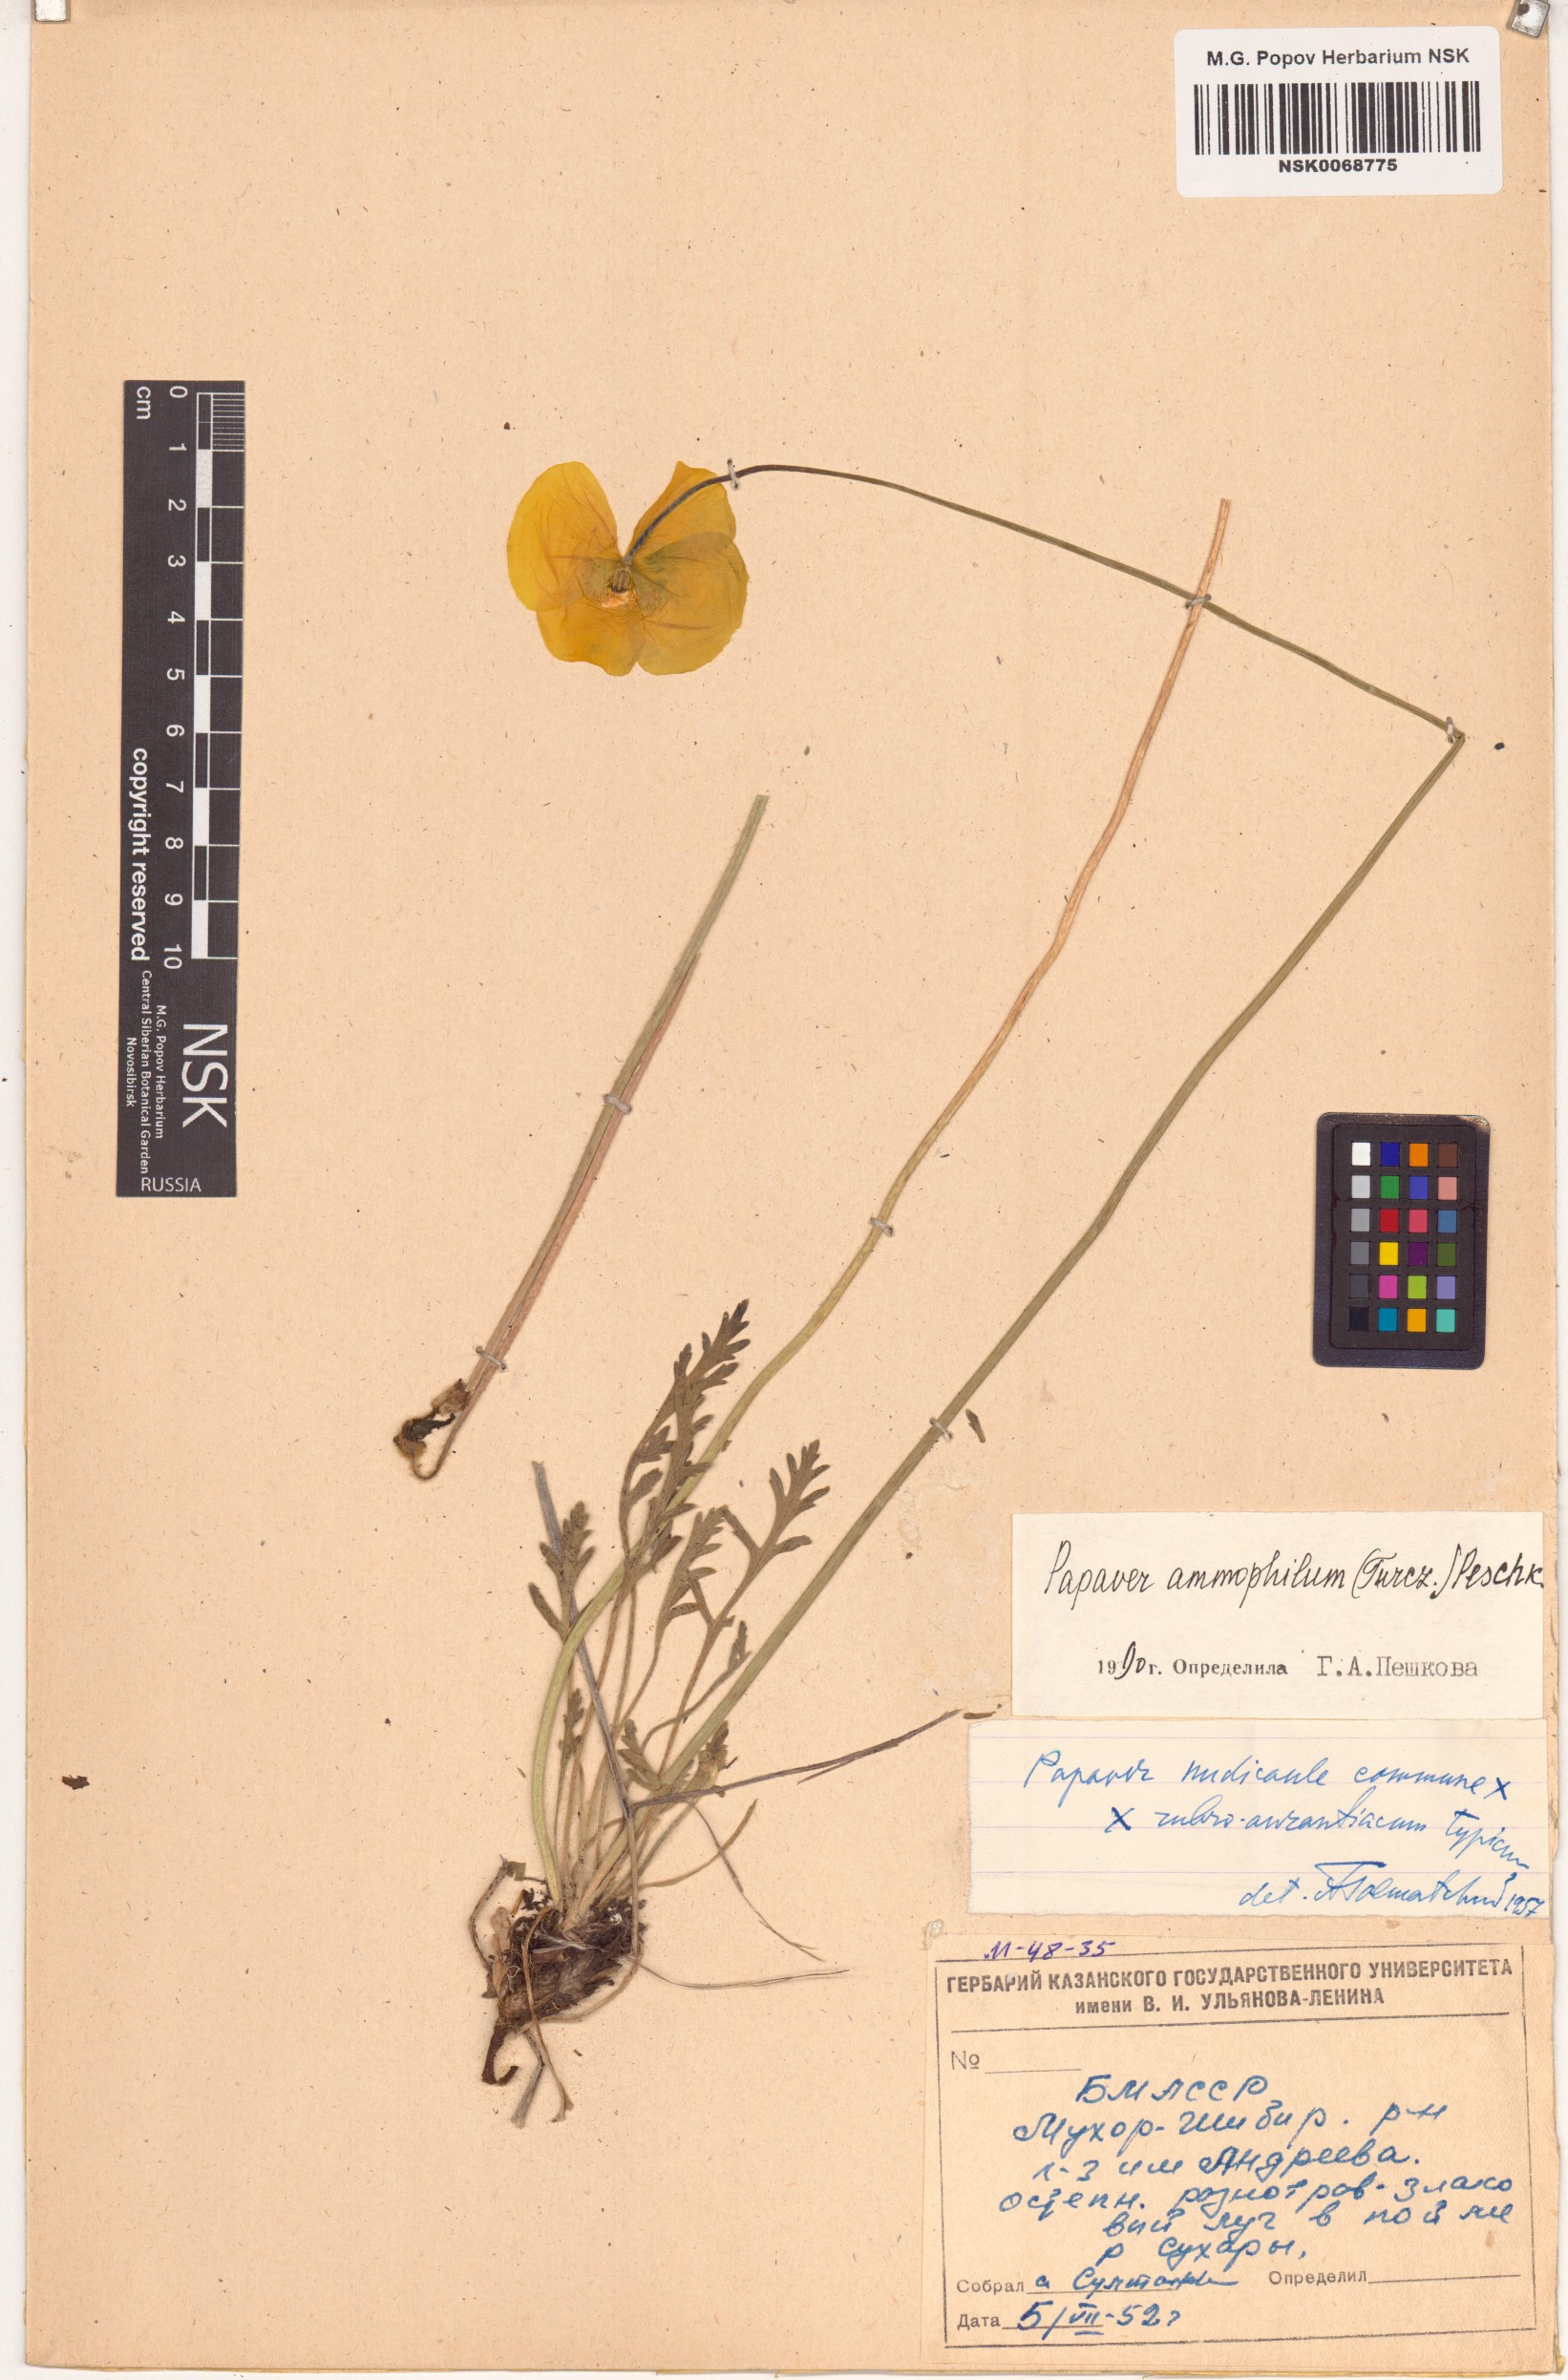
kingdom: Plantae
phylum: Tracheophyta
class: Magnoliopsida
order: Ranunculales
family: Papaveraceae
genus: Papaver
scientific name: Papaver nudicaule
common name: Arctic poppy
